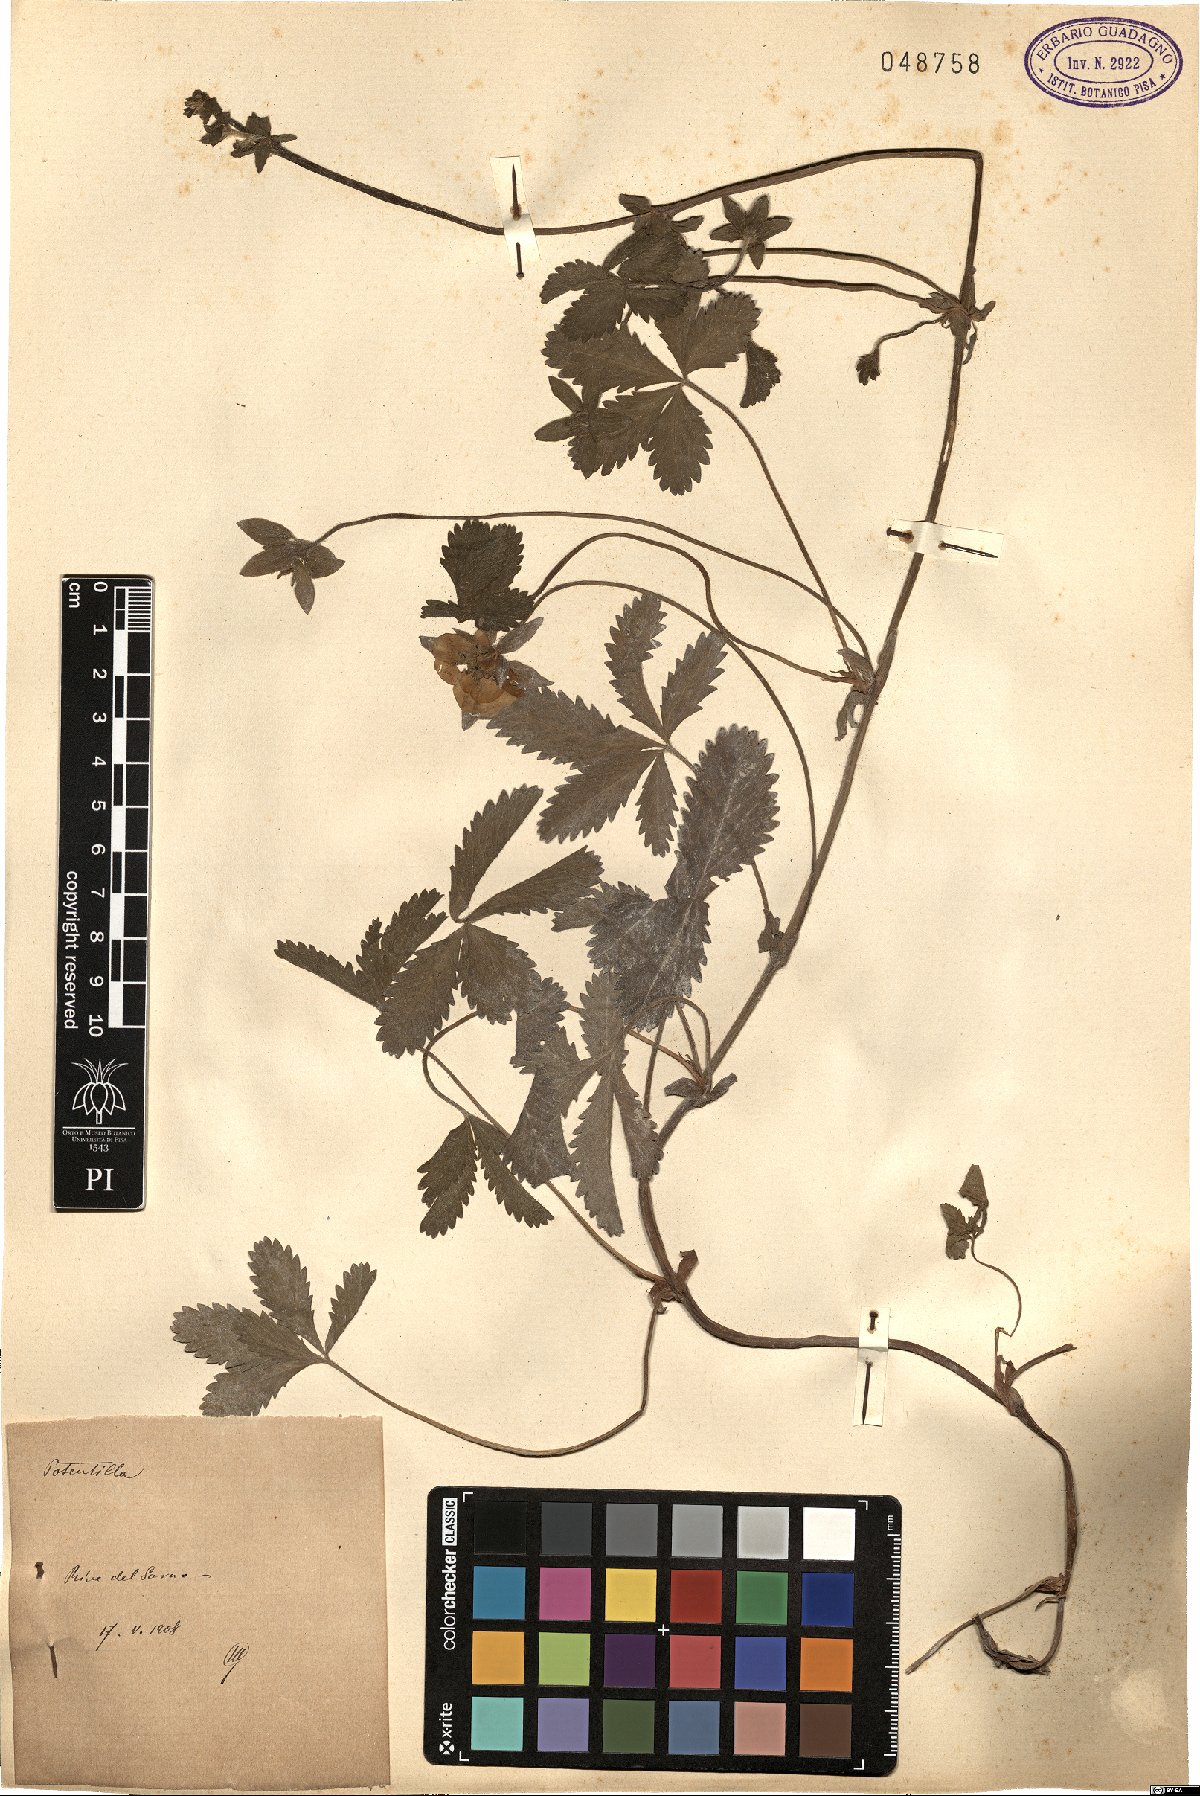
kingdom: Plantae
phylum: Tracheophyta
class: Magnoliopsida
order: Rosales
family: Rosaceae
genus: Potentilla
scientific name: Potentilla
